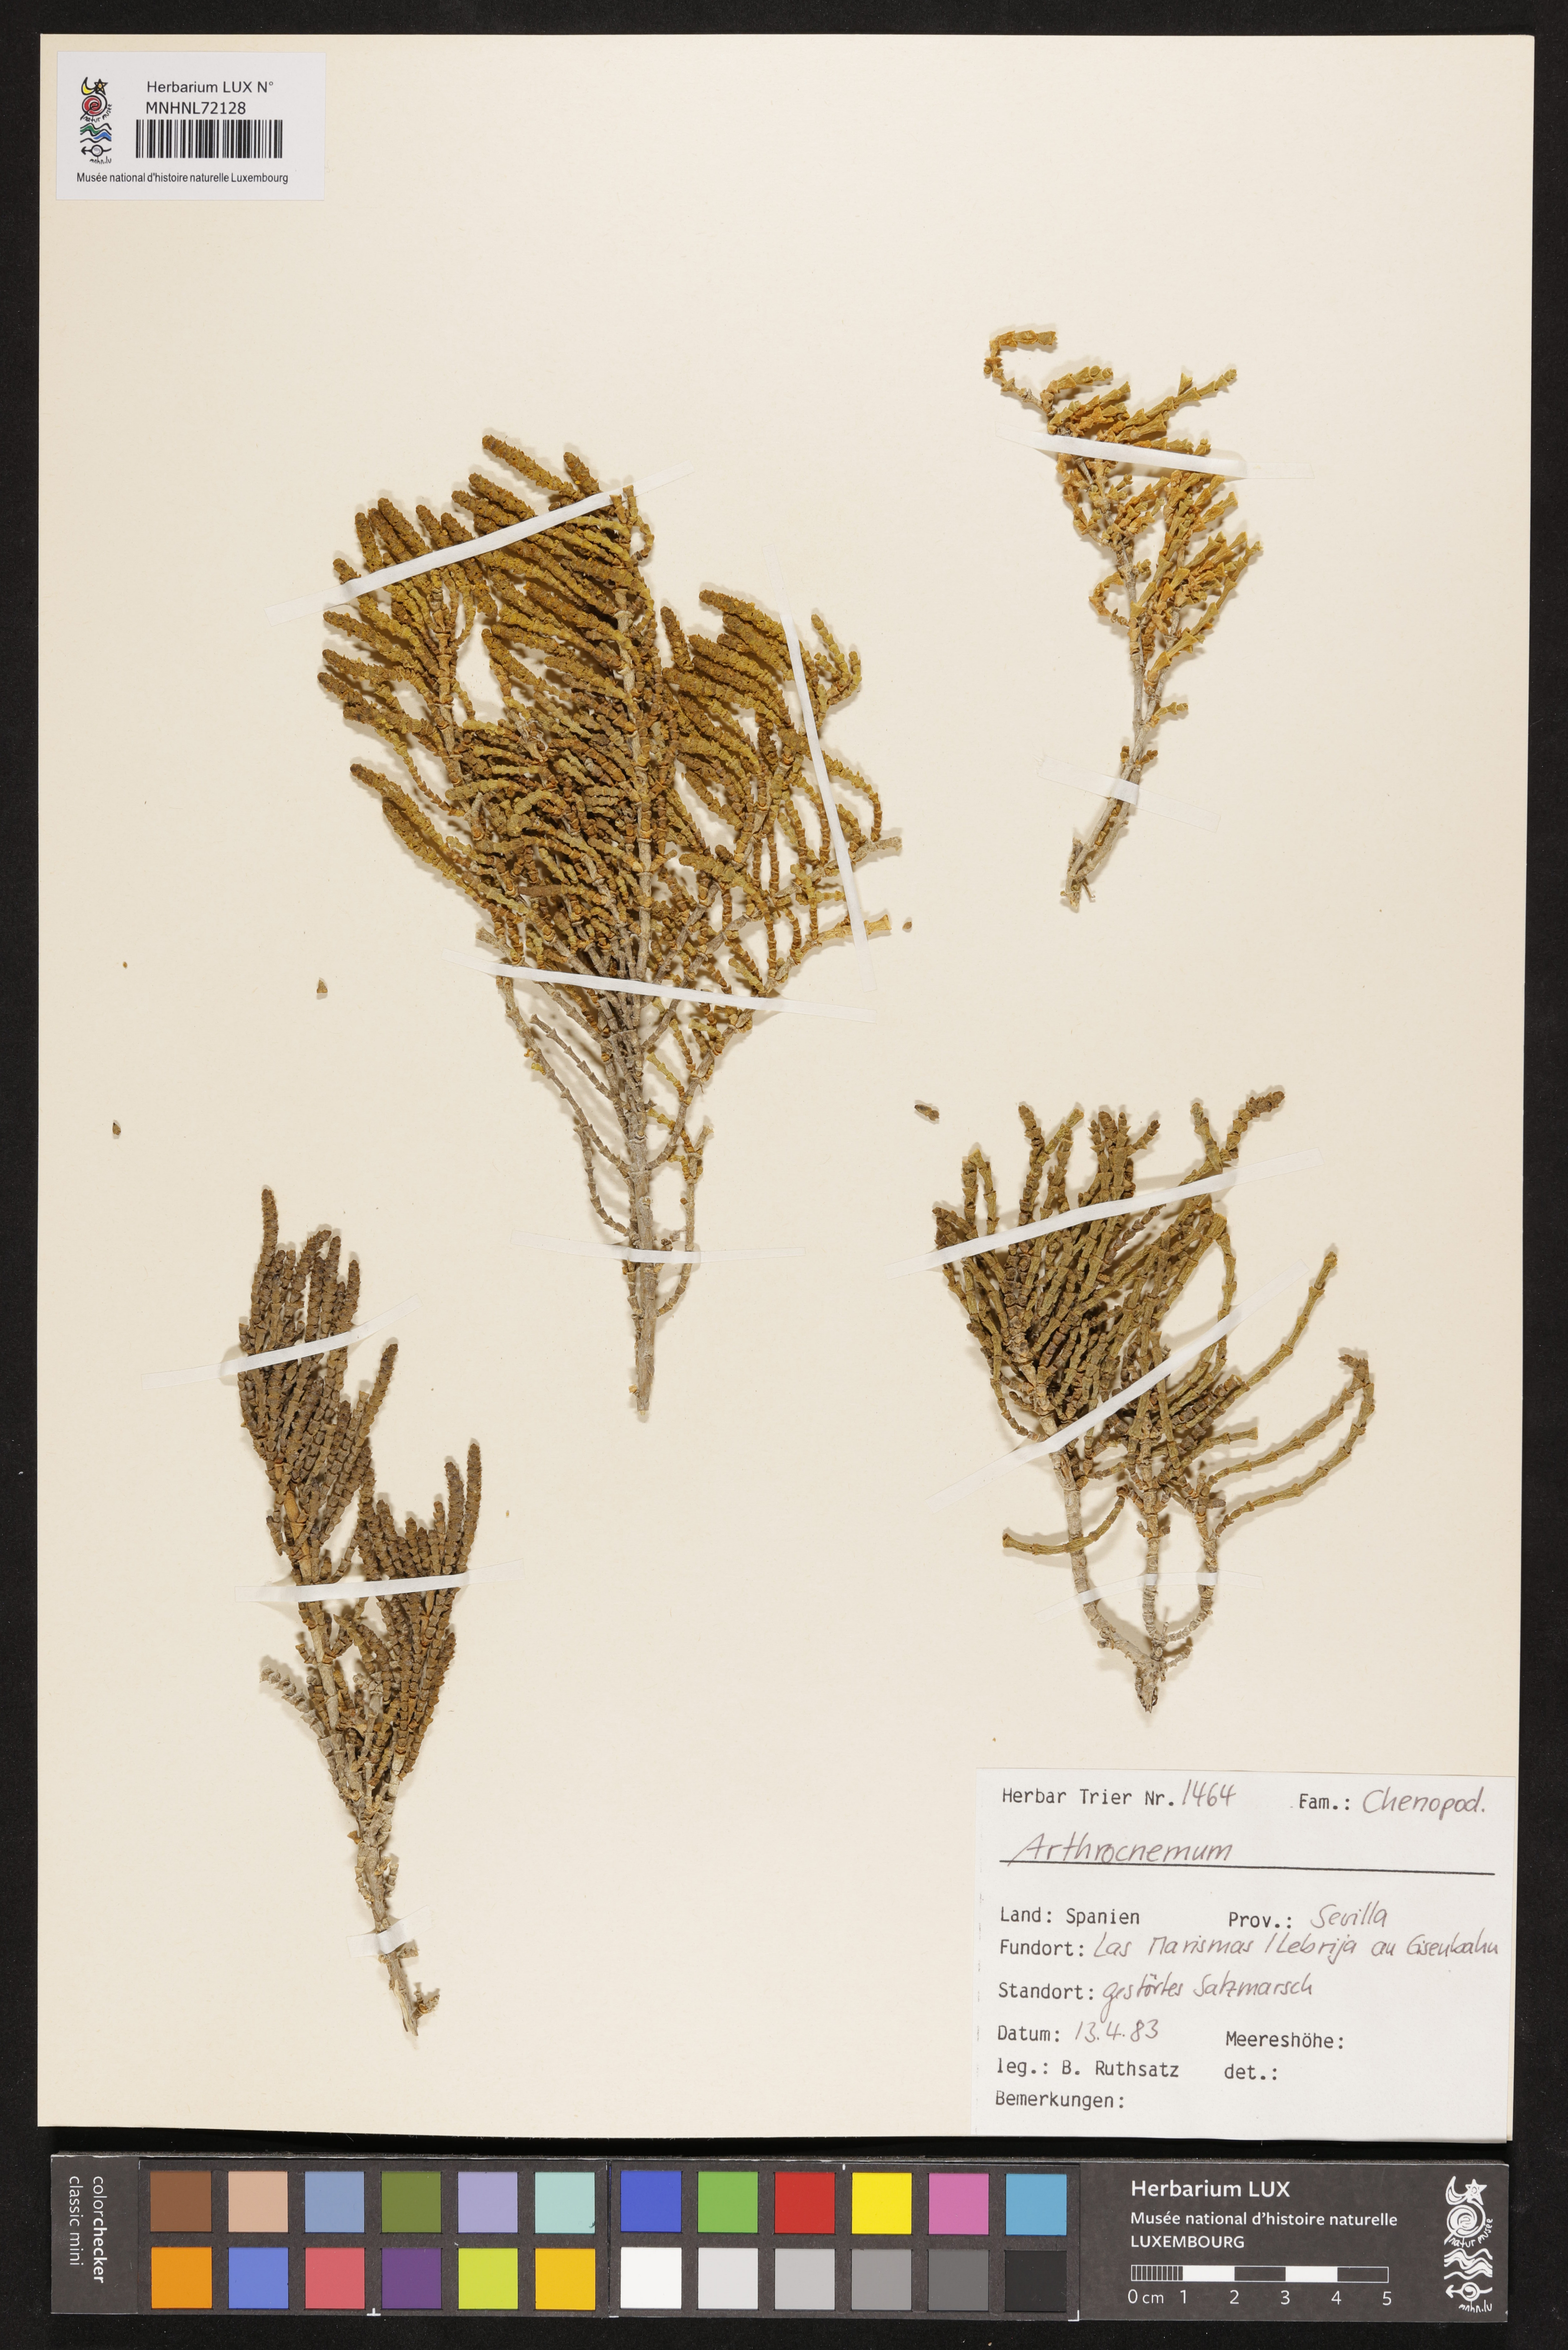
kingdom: Plantae
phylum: Tracheophyta
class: Magnoliopsida
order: Caryophyllales
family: Amaranthaceae
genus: Salicornia
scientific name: Salicornia
